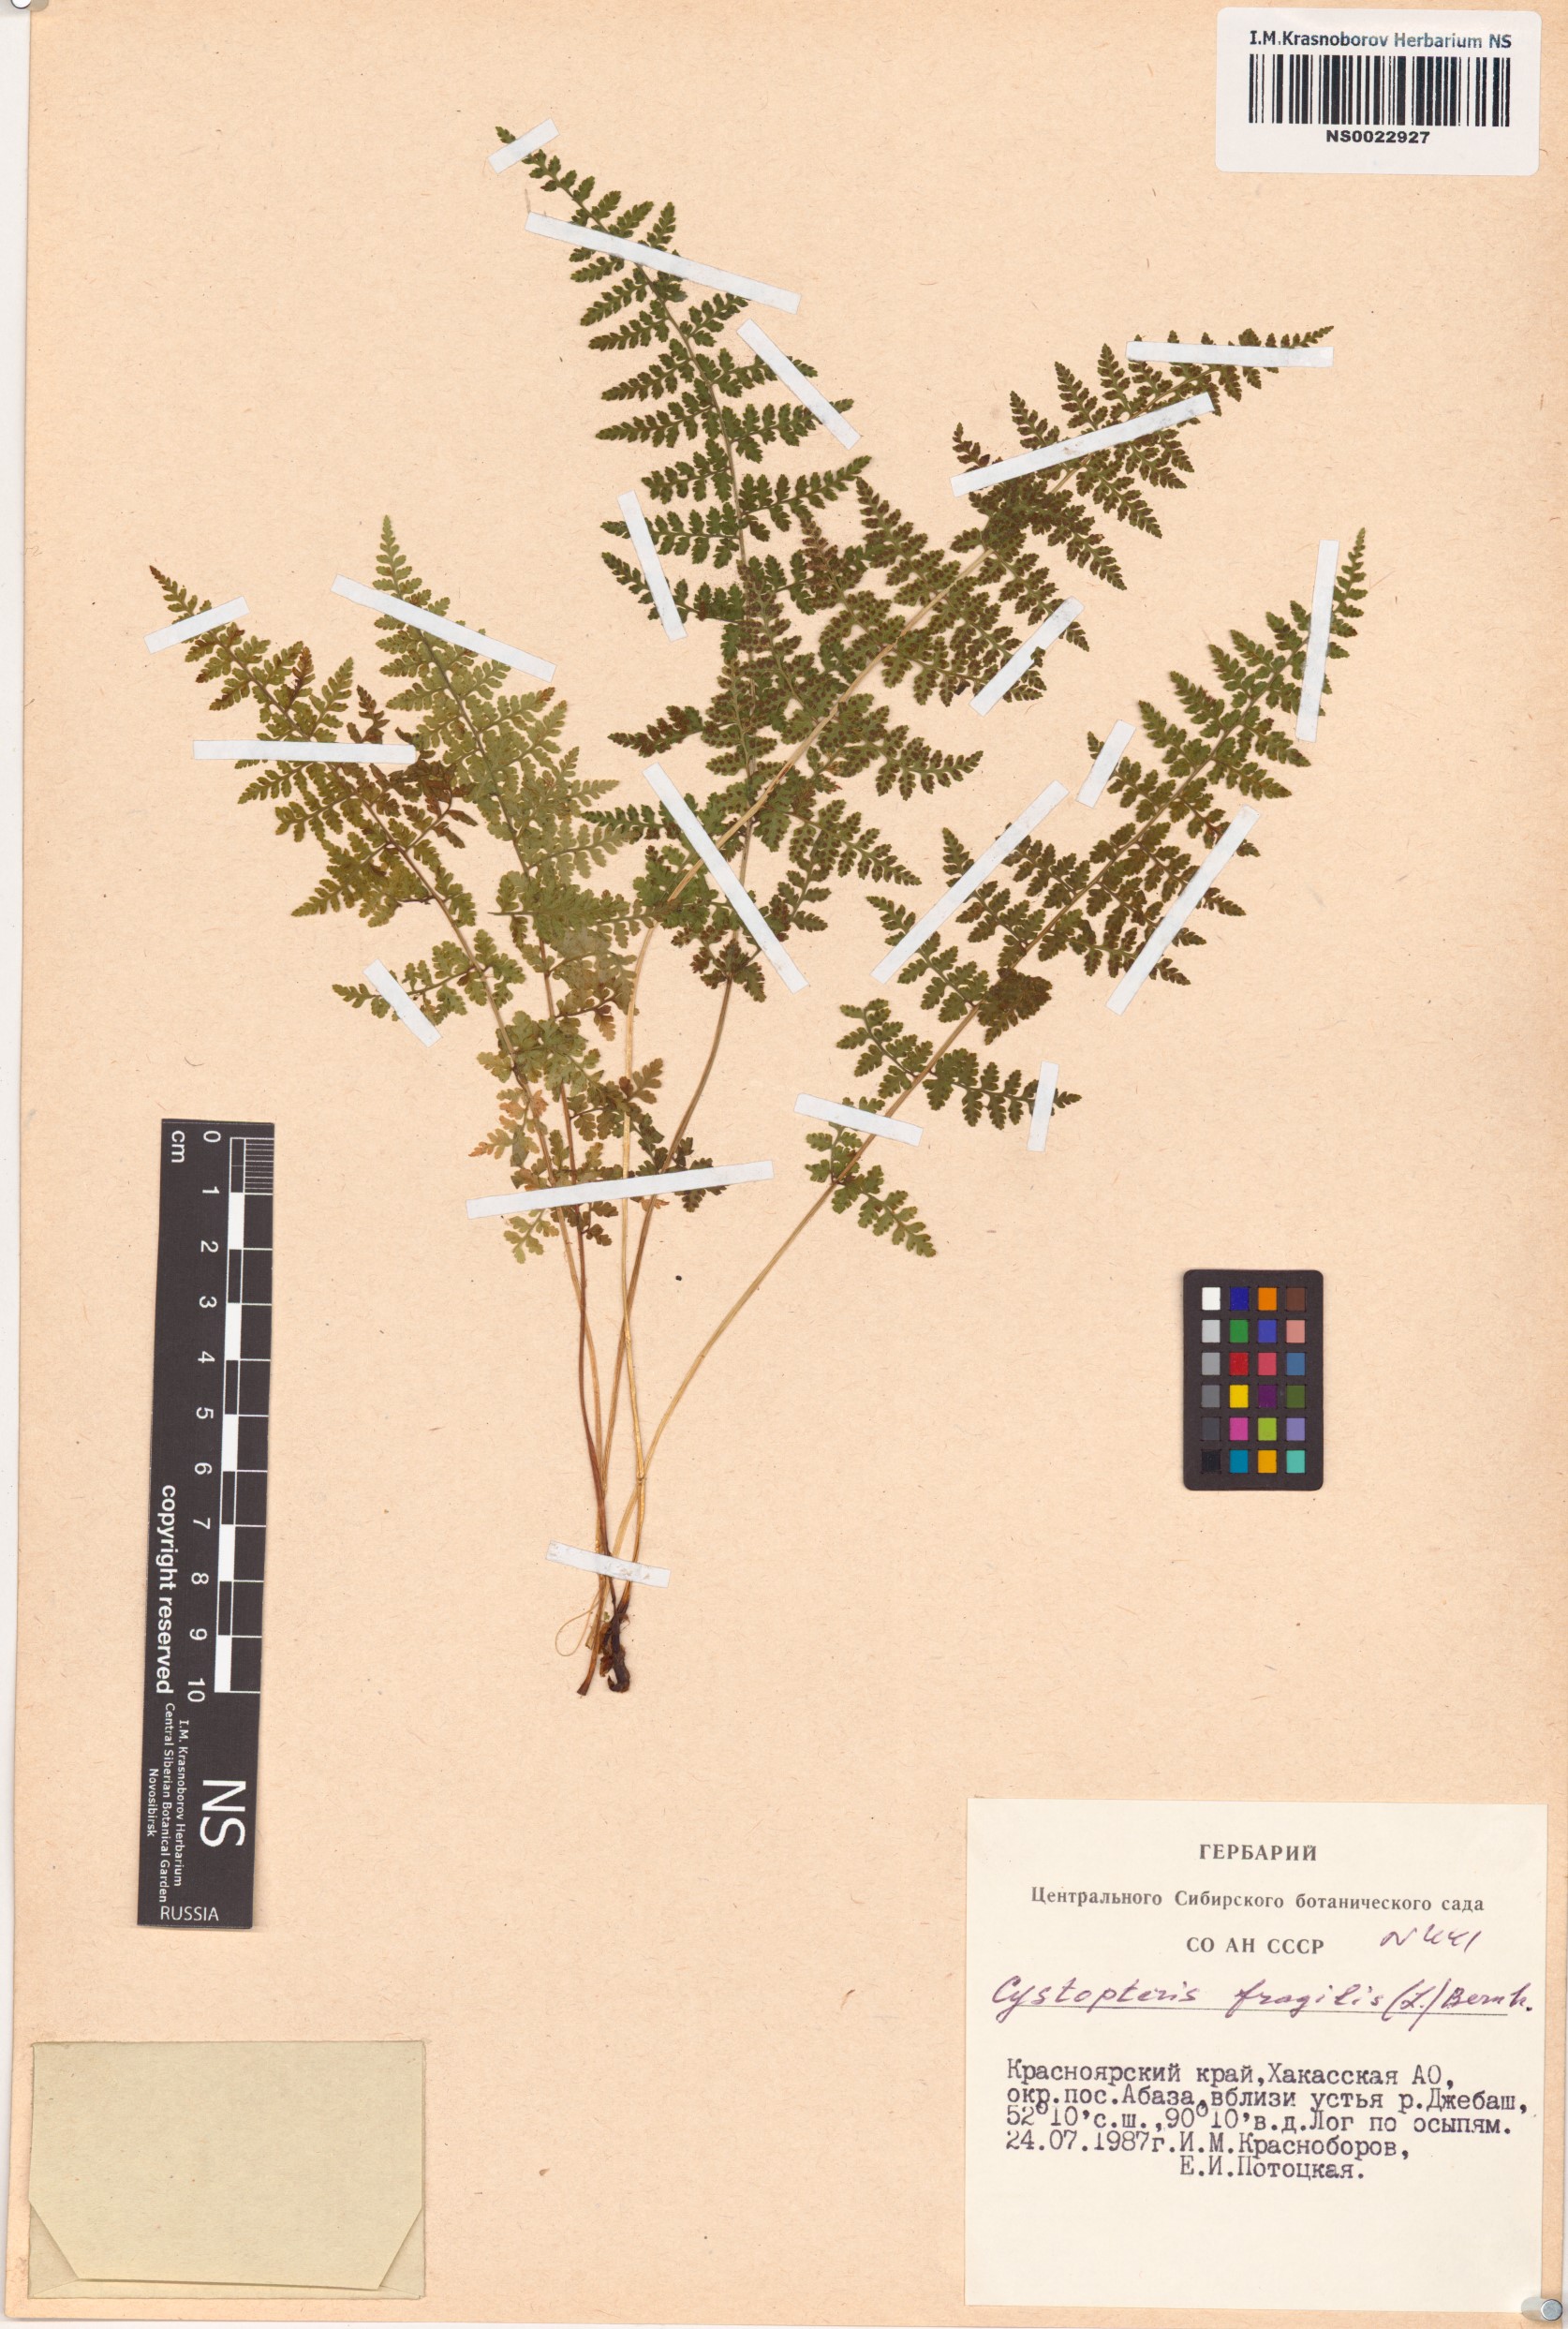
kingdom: Plantae
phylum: Tracheophyta
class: Polypodiopsida
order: Polypodiales
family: Cystopteridaceae
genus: Cystopteris
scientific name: Cystopteris fragilis
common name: Brittle bladder fern
